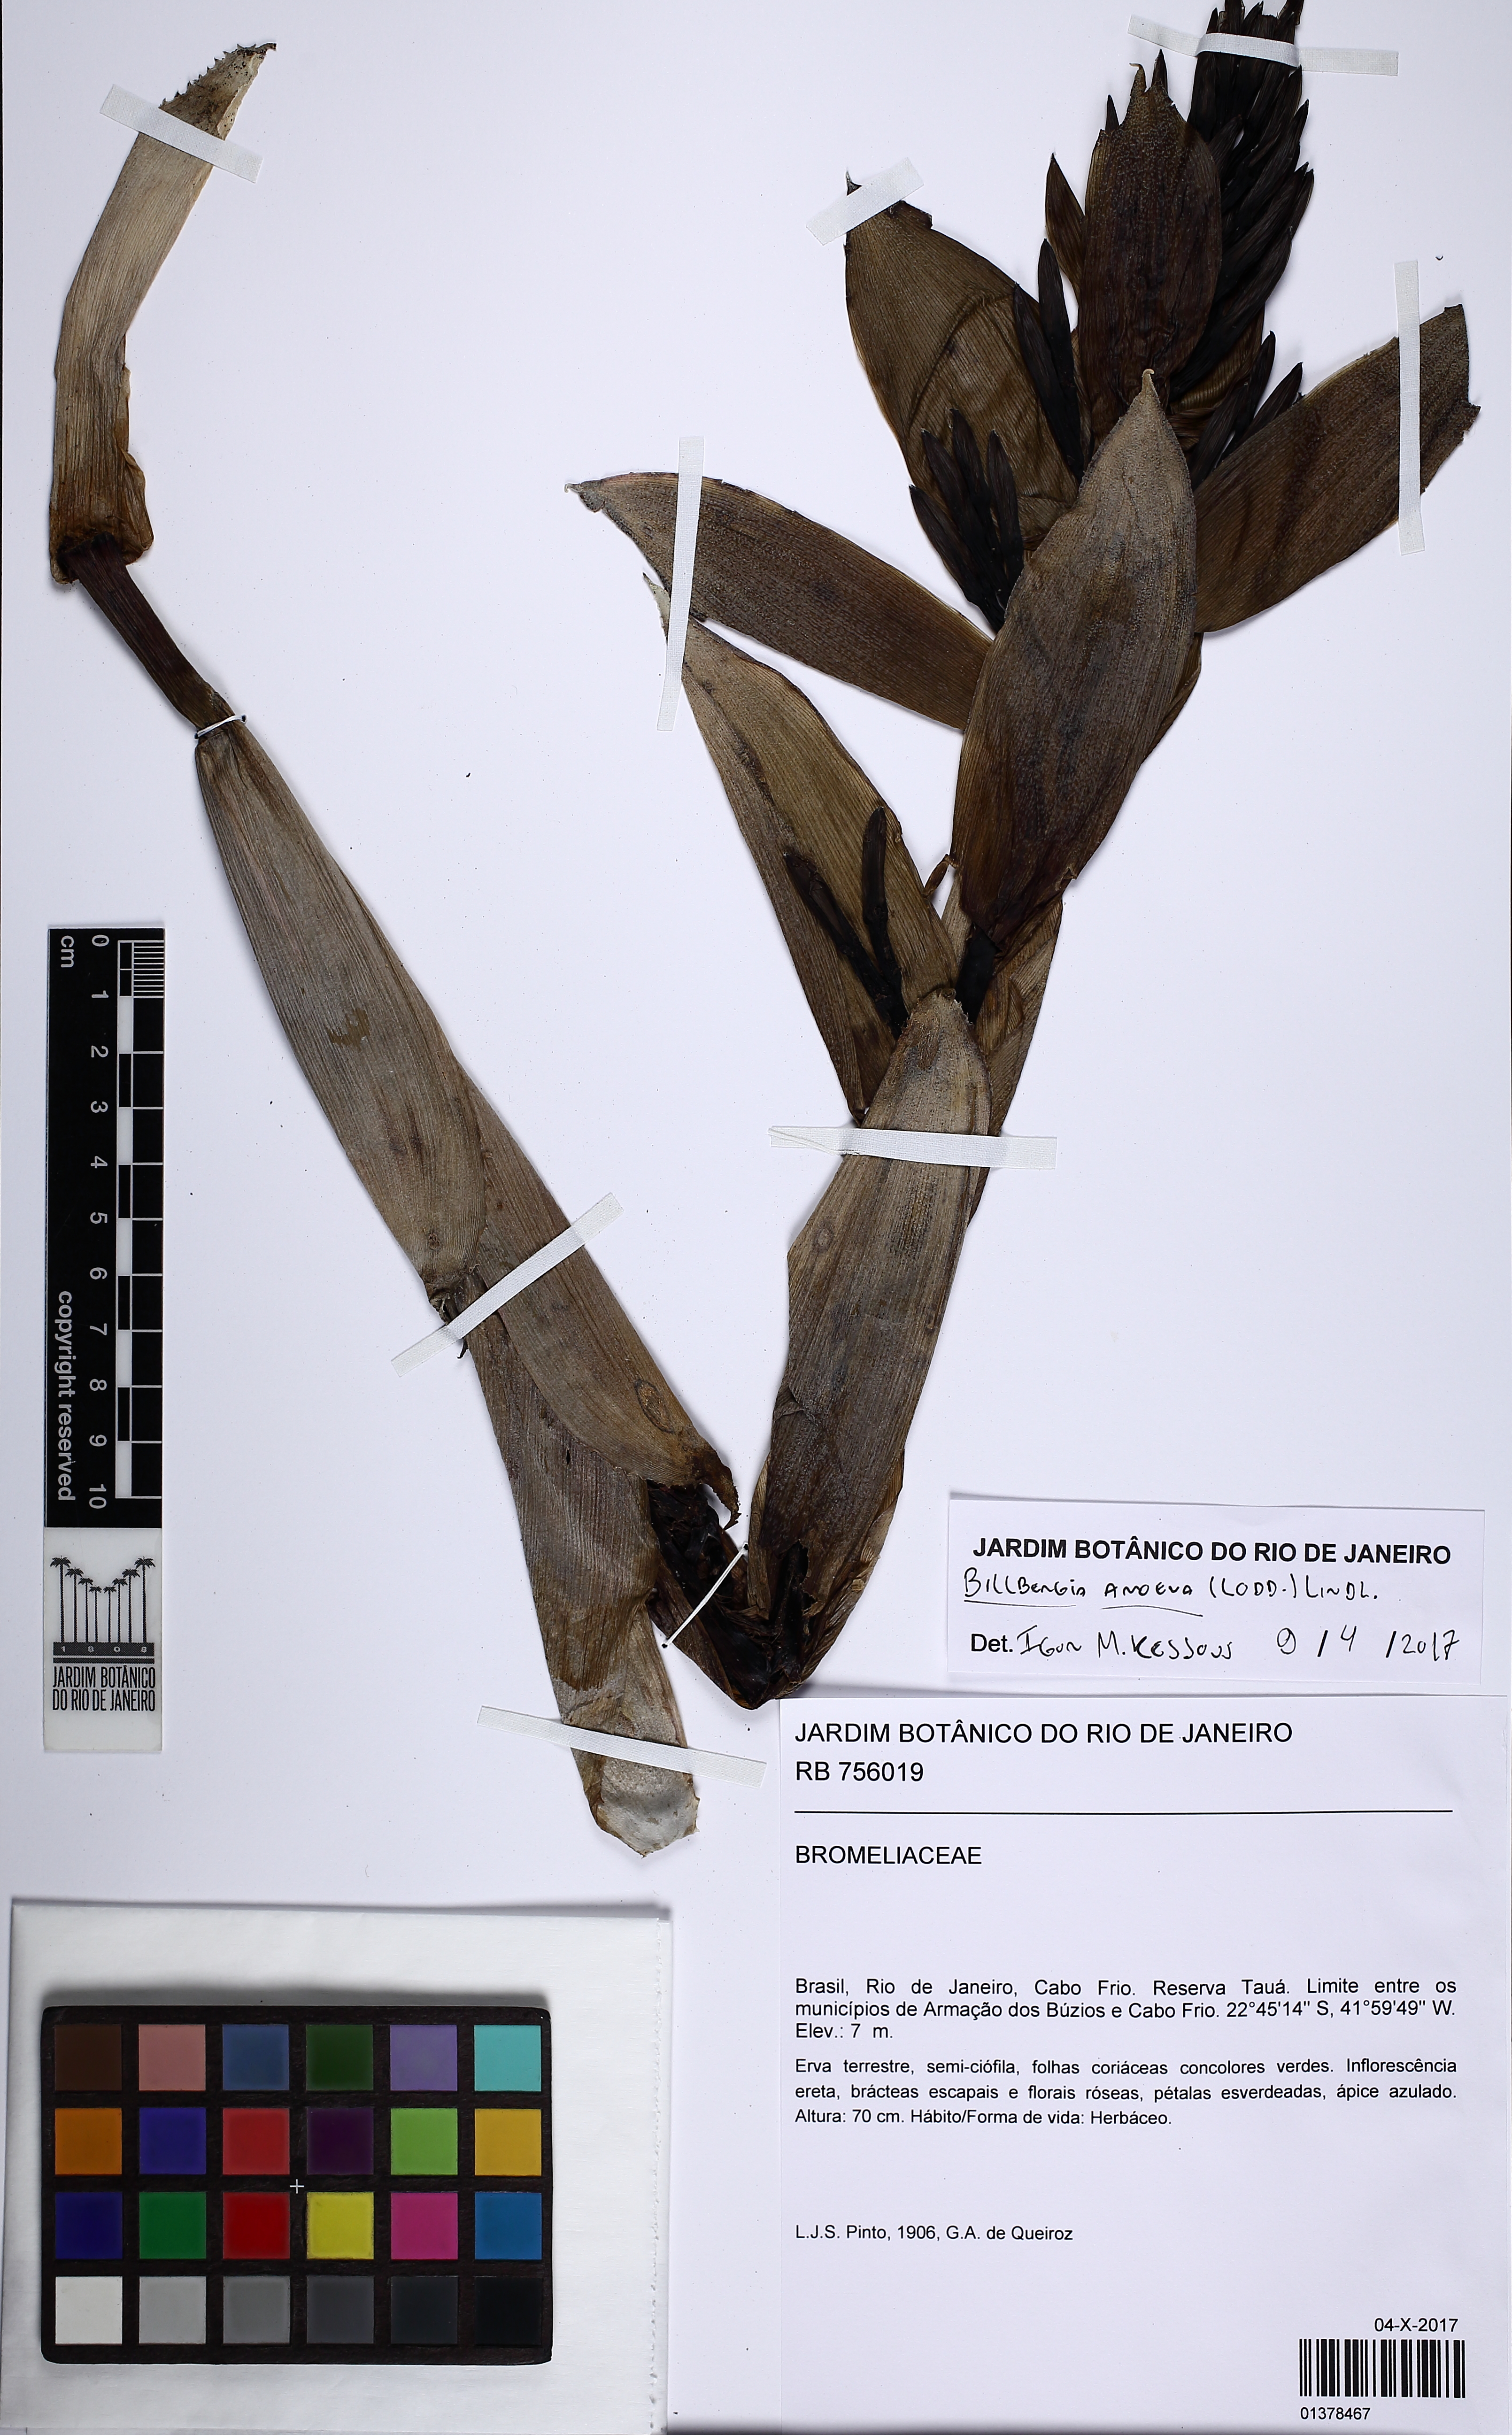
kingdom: Plantae
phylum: Tracheophyta
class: Liliopsida
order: Poales
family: Bromeliaceae
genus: Billbergia
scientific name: Billbergia amoena
